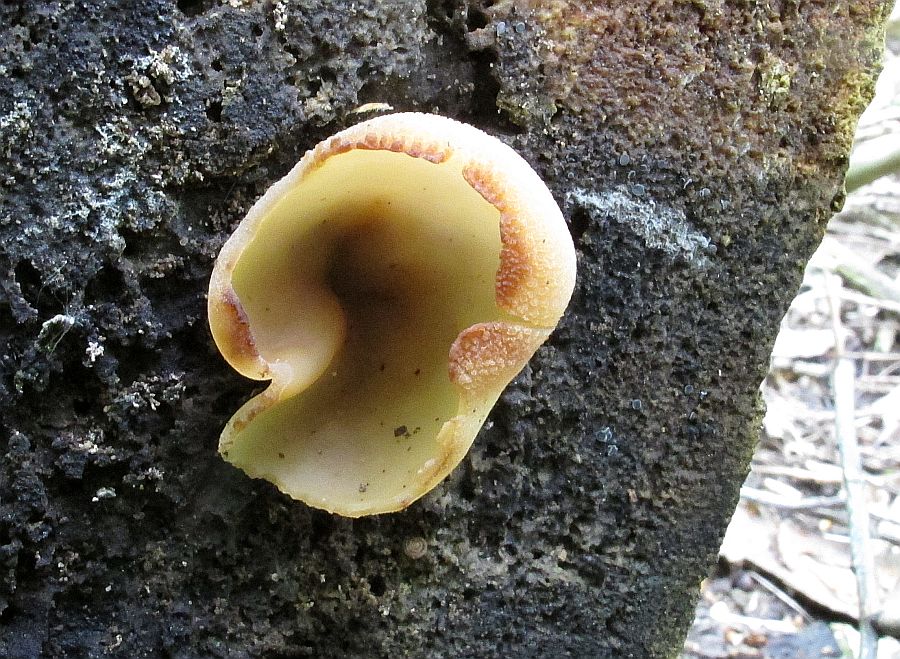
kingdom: Fungi
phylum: Ascomycota
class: Pezizomycetes
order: Pezizales
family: Pezizaceae
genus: Peziza
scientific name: Peziza varia
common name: Ved-bægersvamp
